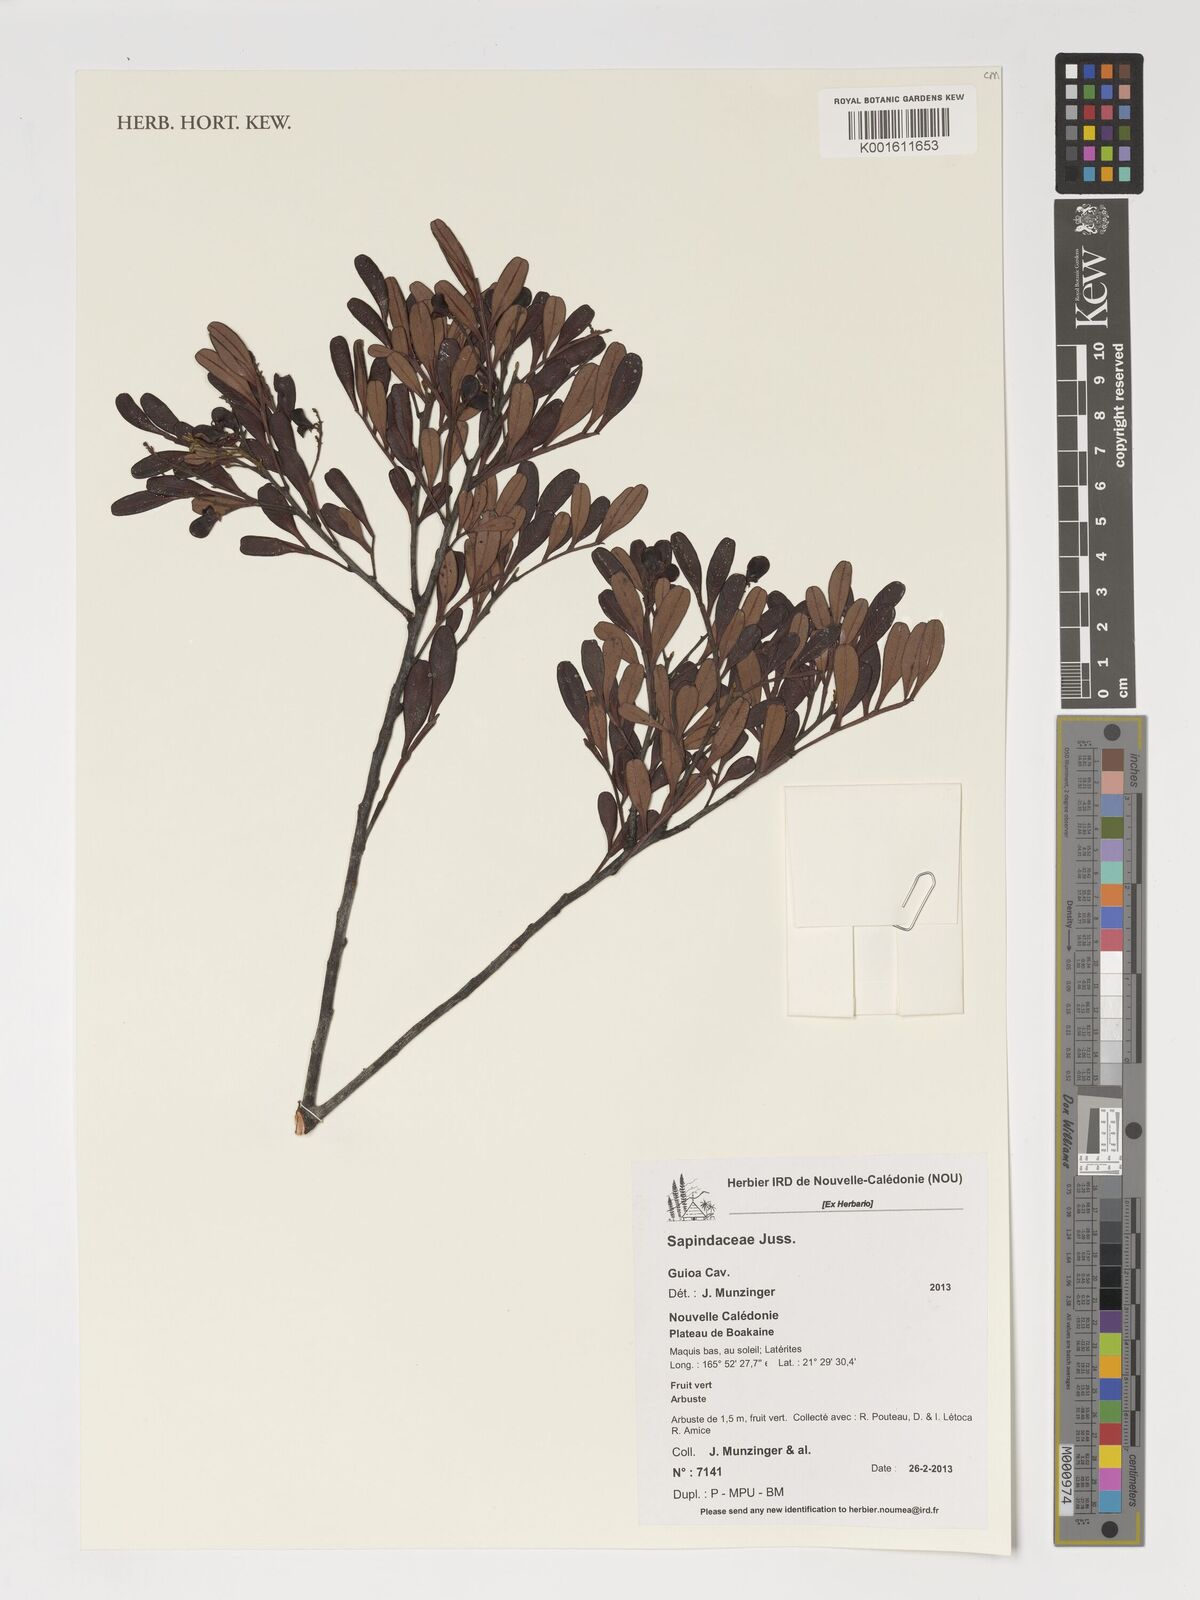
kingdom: Plantae
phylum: Tracheophyta
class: Magnoliopsida
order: Sapindales
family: Sapindaceae
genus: Guioa
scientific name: Guioa
